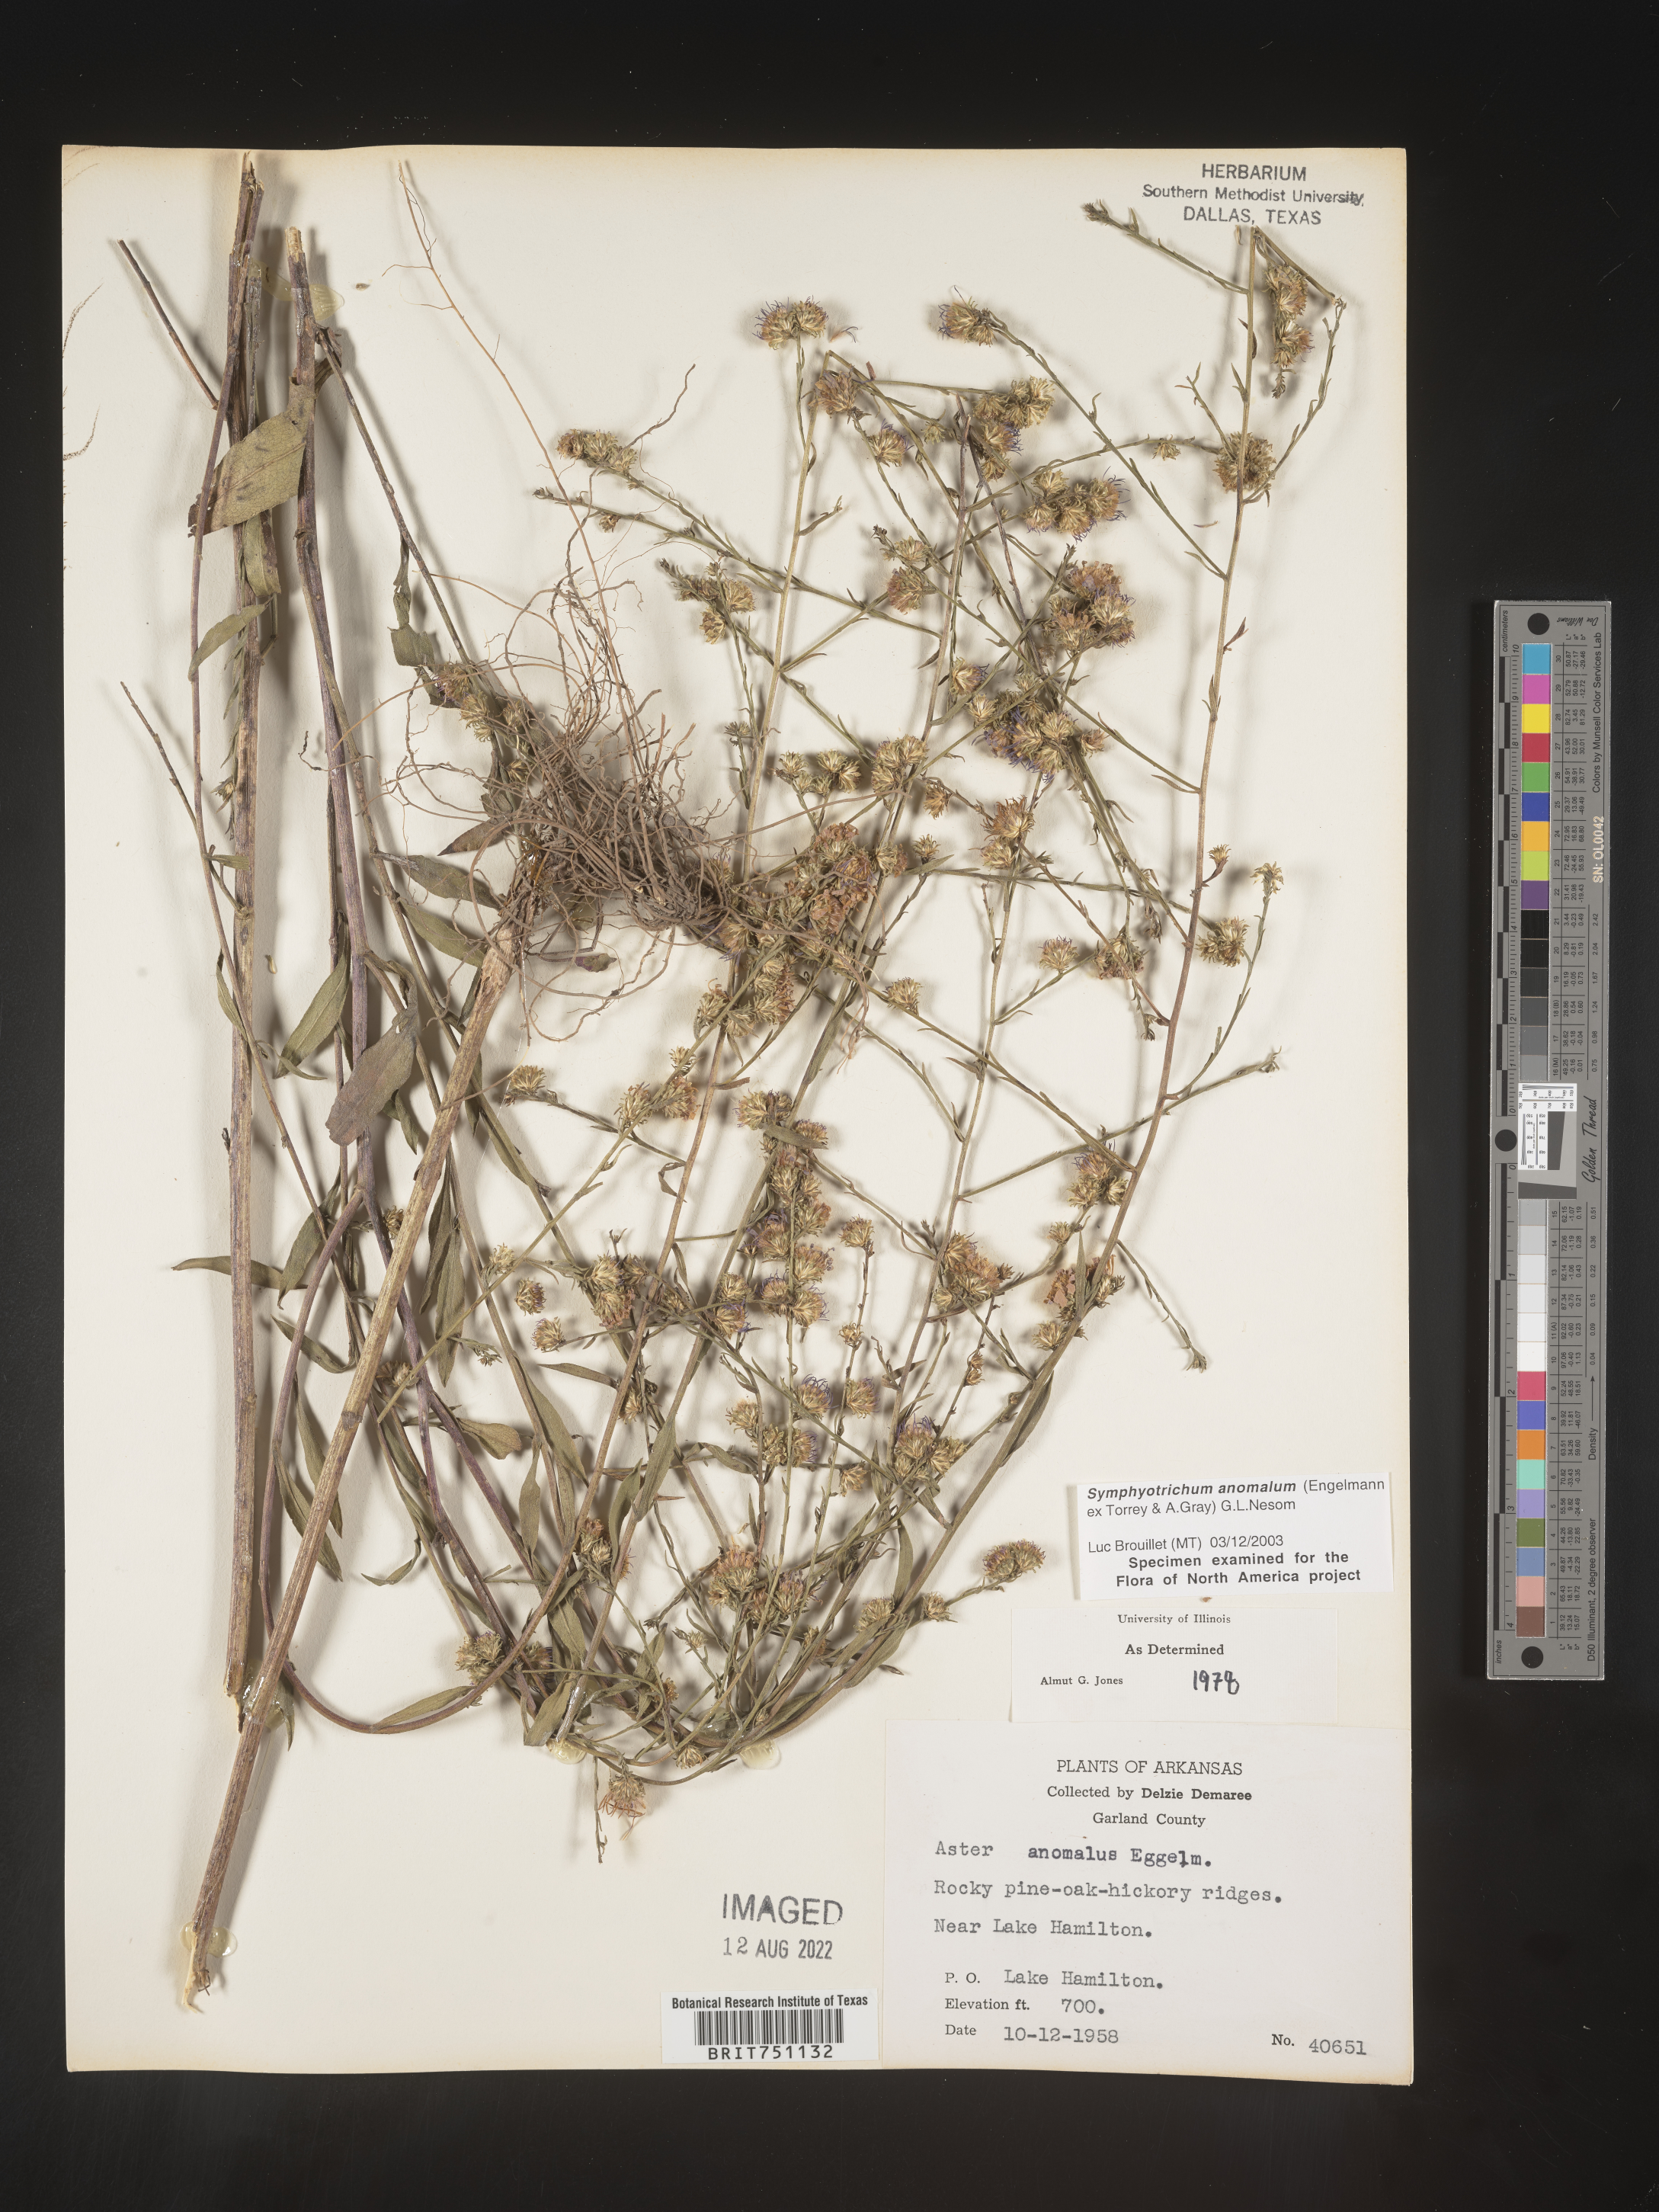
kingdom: Plantae
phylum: Tracheophyta
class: Magnoliopsida
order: Asterales
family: Asteraceae
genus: Symphyotrichum
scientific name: Symphyotrichum anomalum
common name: Many-ray aster
